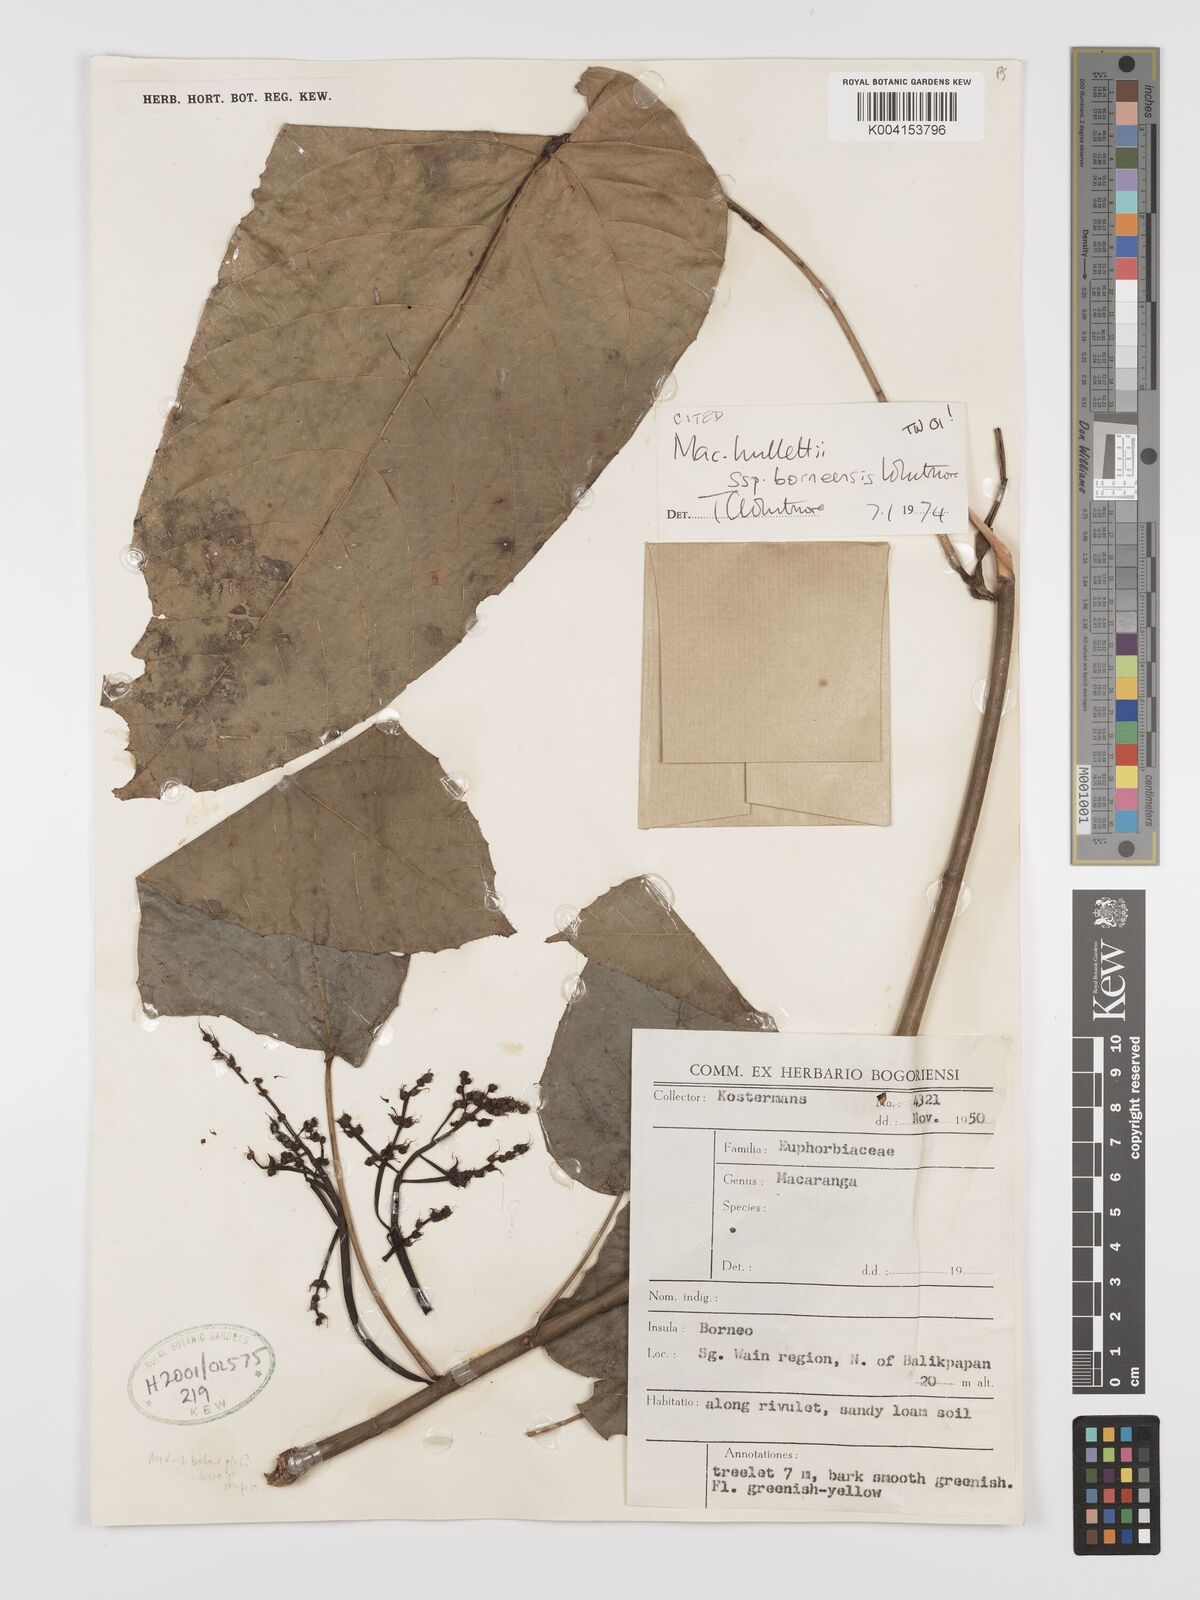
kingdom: Plantae
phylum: Tracheophyta
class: Magnoliopsida
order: Malpighiales
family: Euphorbiaceae
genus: Macaranga
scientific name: Macaranga hullettii
